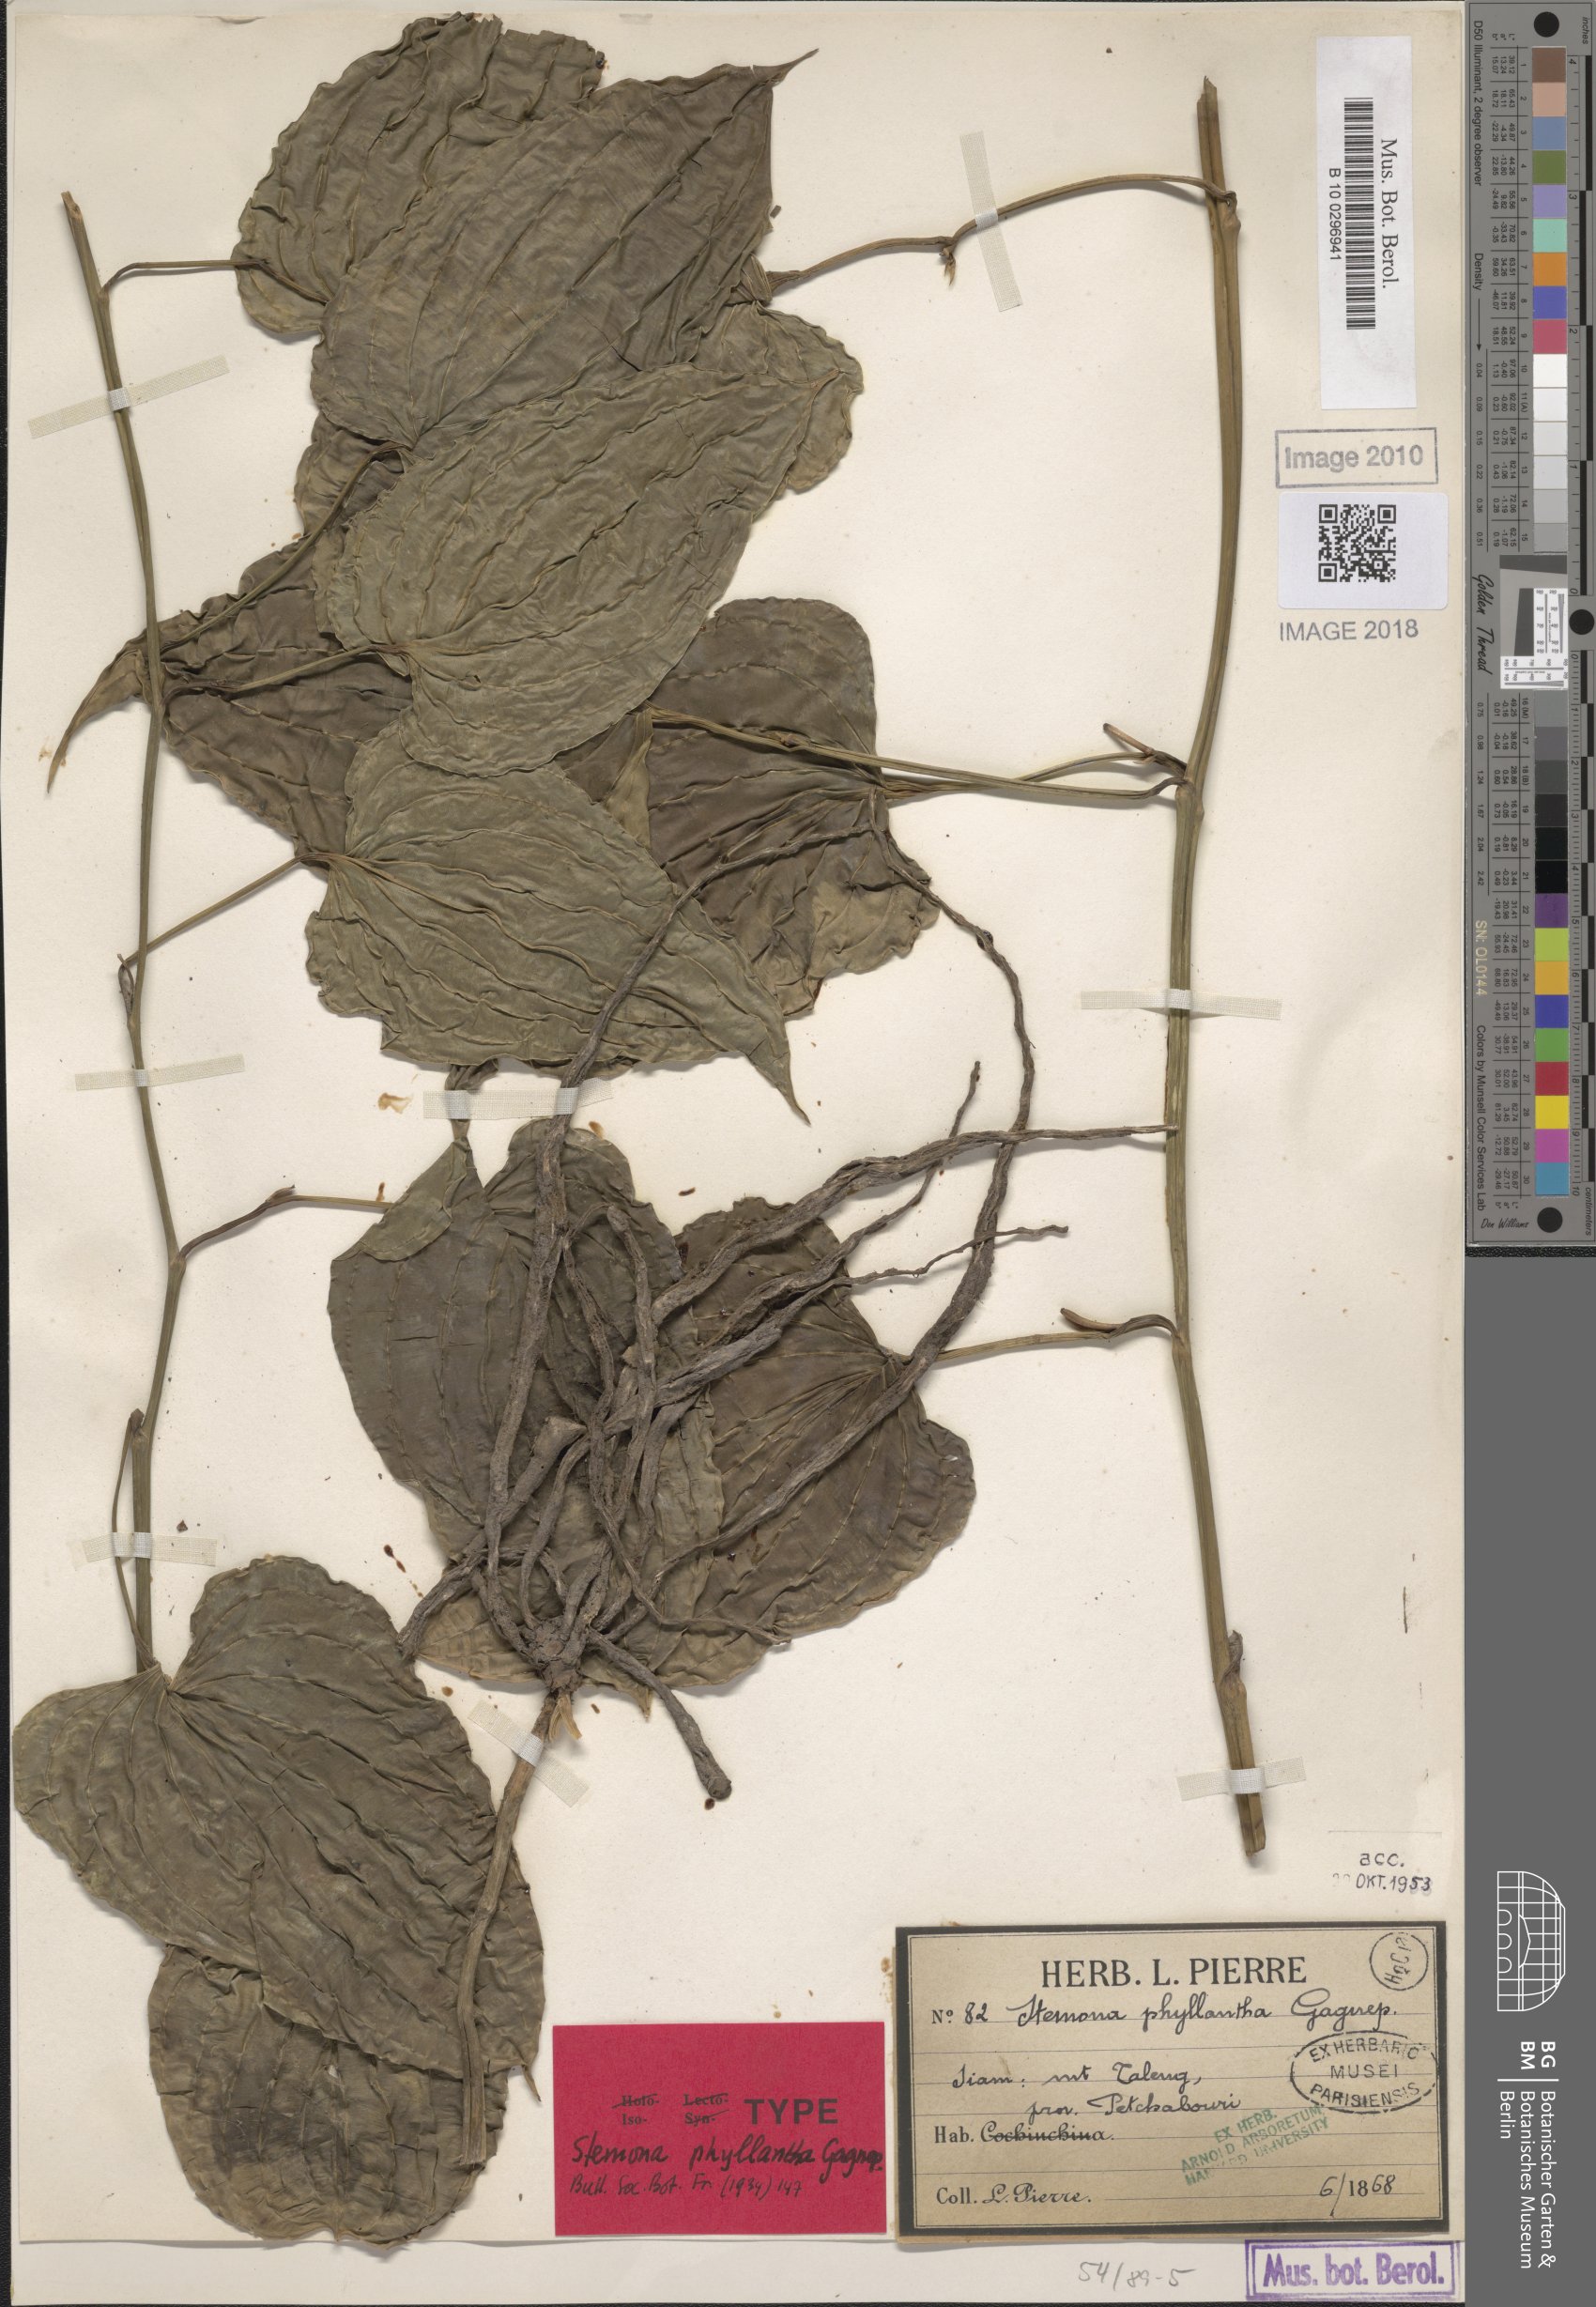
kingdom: Plantae
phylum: Tracheophyta
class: Liliopsida
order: Pandanales
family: Stemonaceae
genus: Stemona
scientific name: Stemona phyllantha
